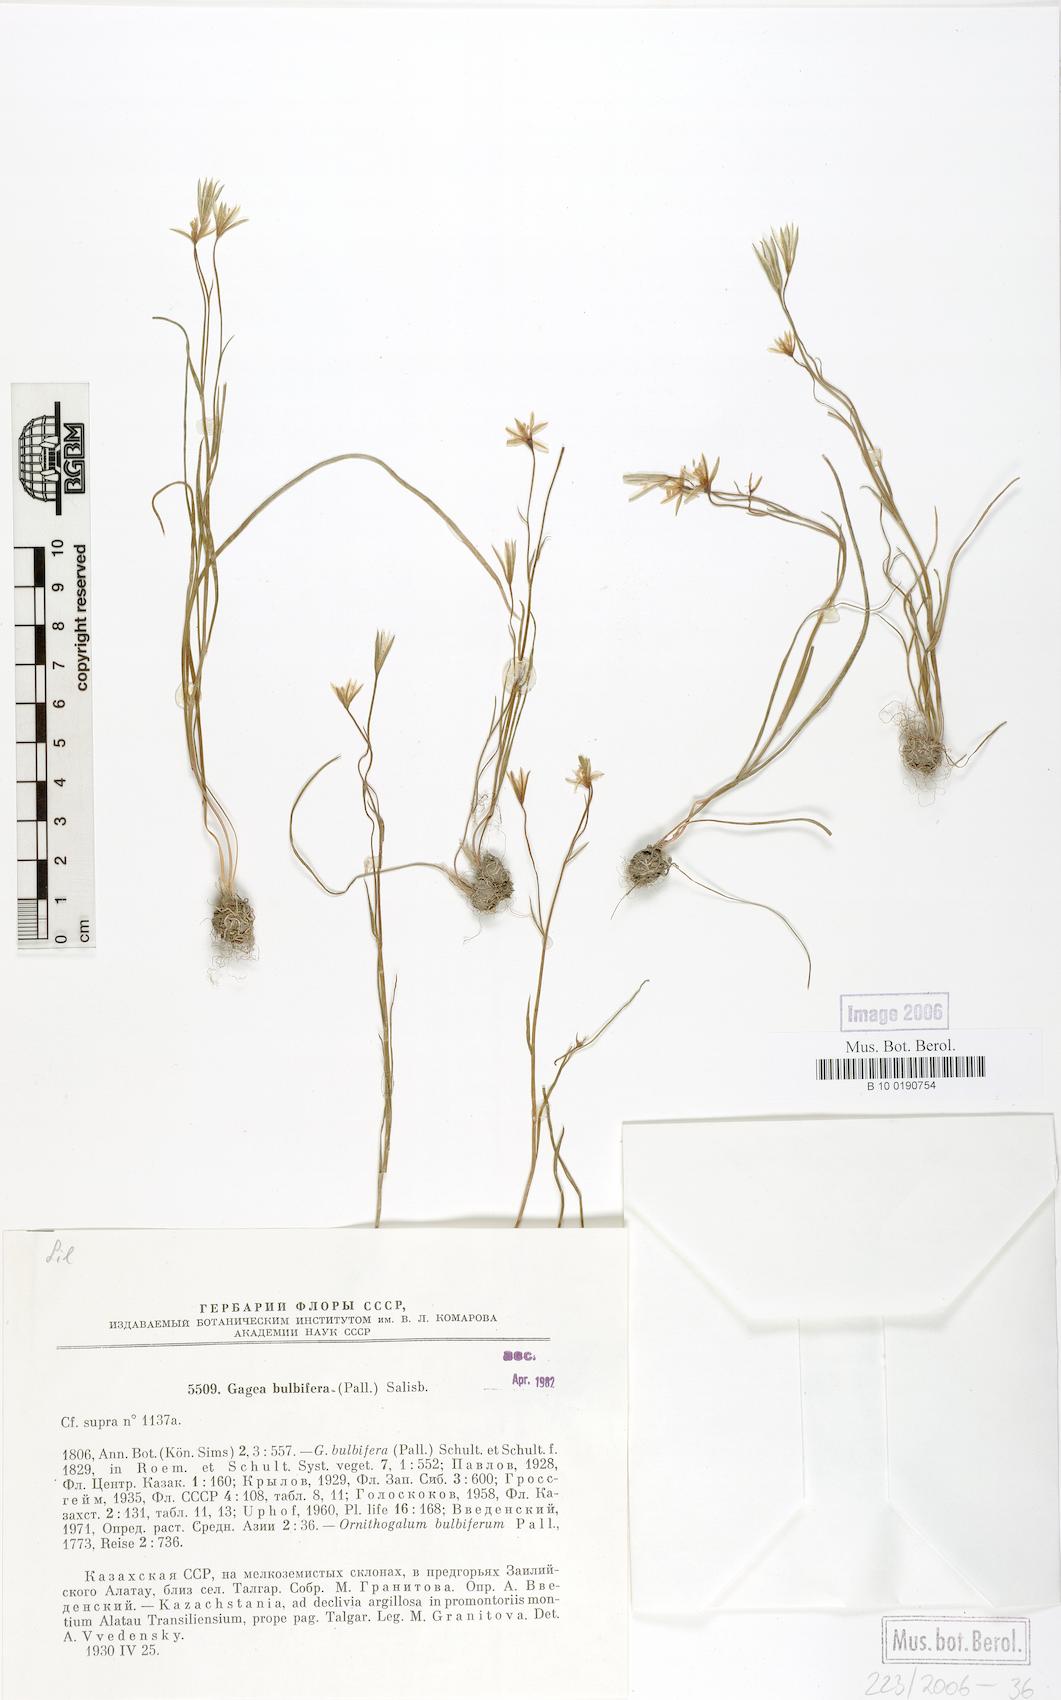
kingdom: Plantae
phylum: Tracheophyta
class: Liliopsida
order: Liliales
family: Liliaceae
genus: Gagea
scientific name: Gagea bulbifera
